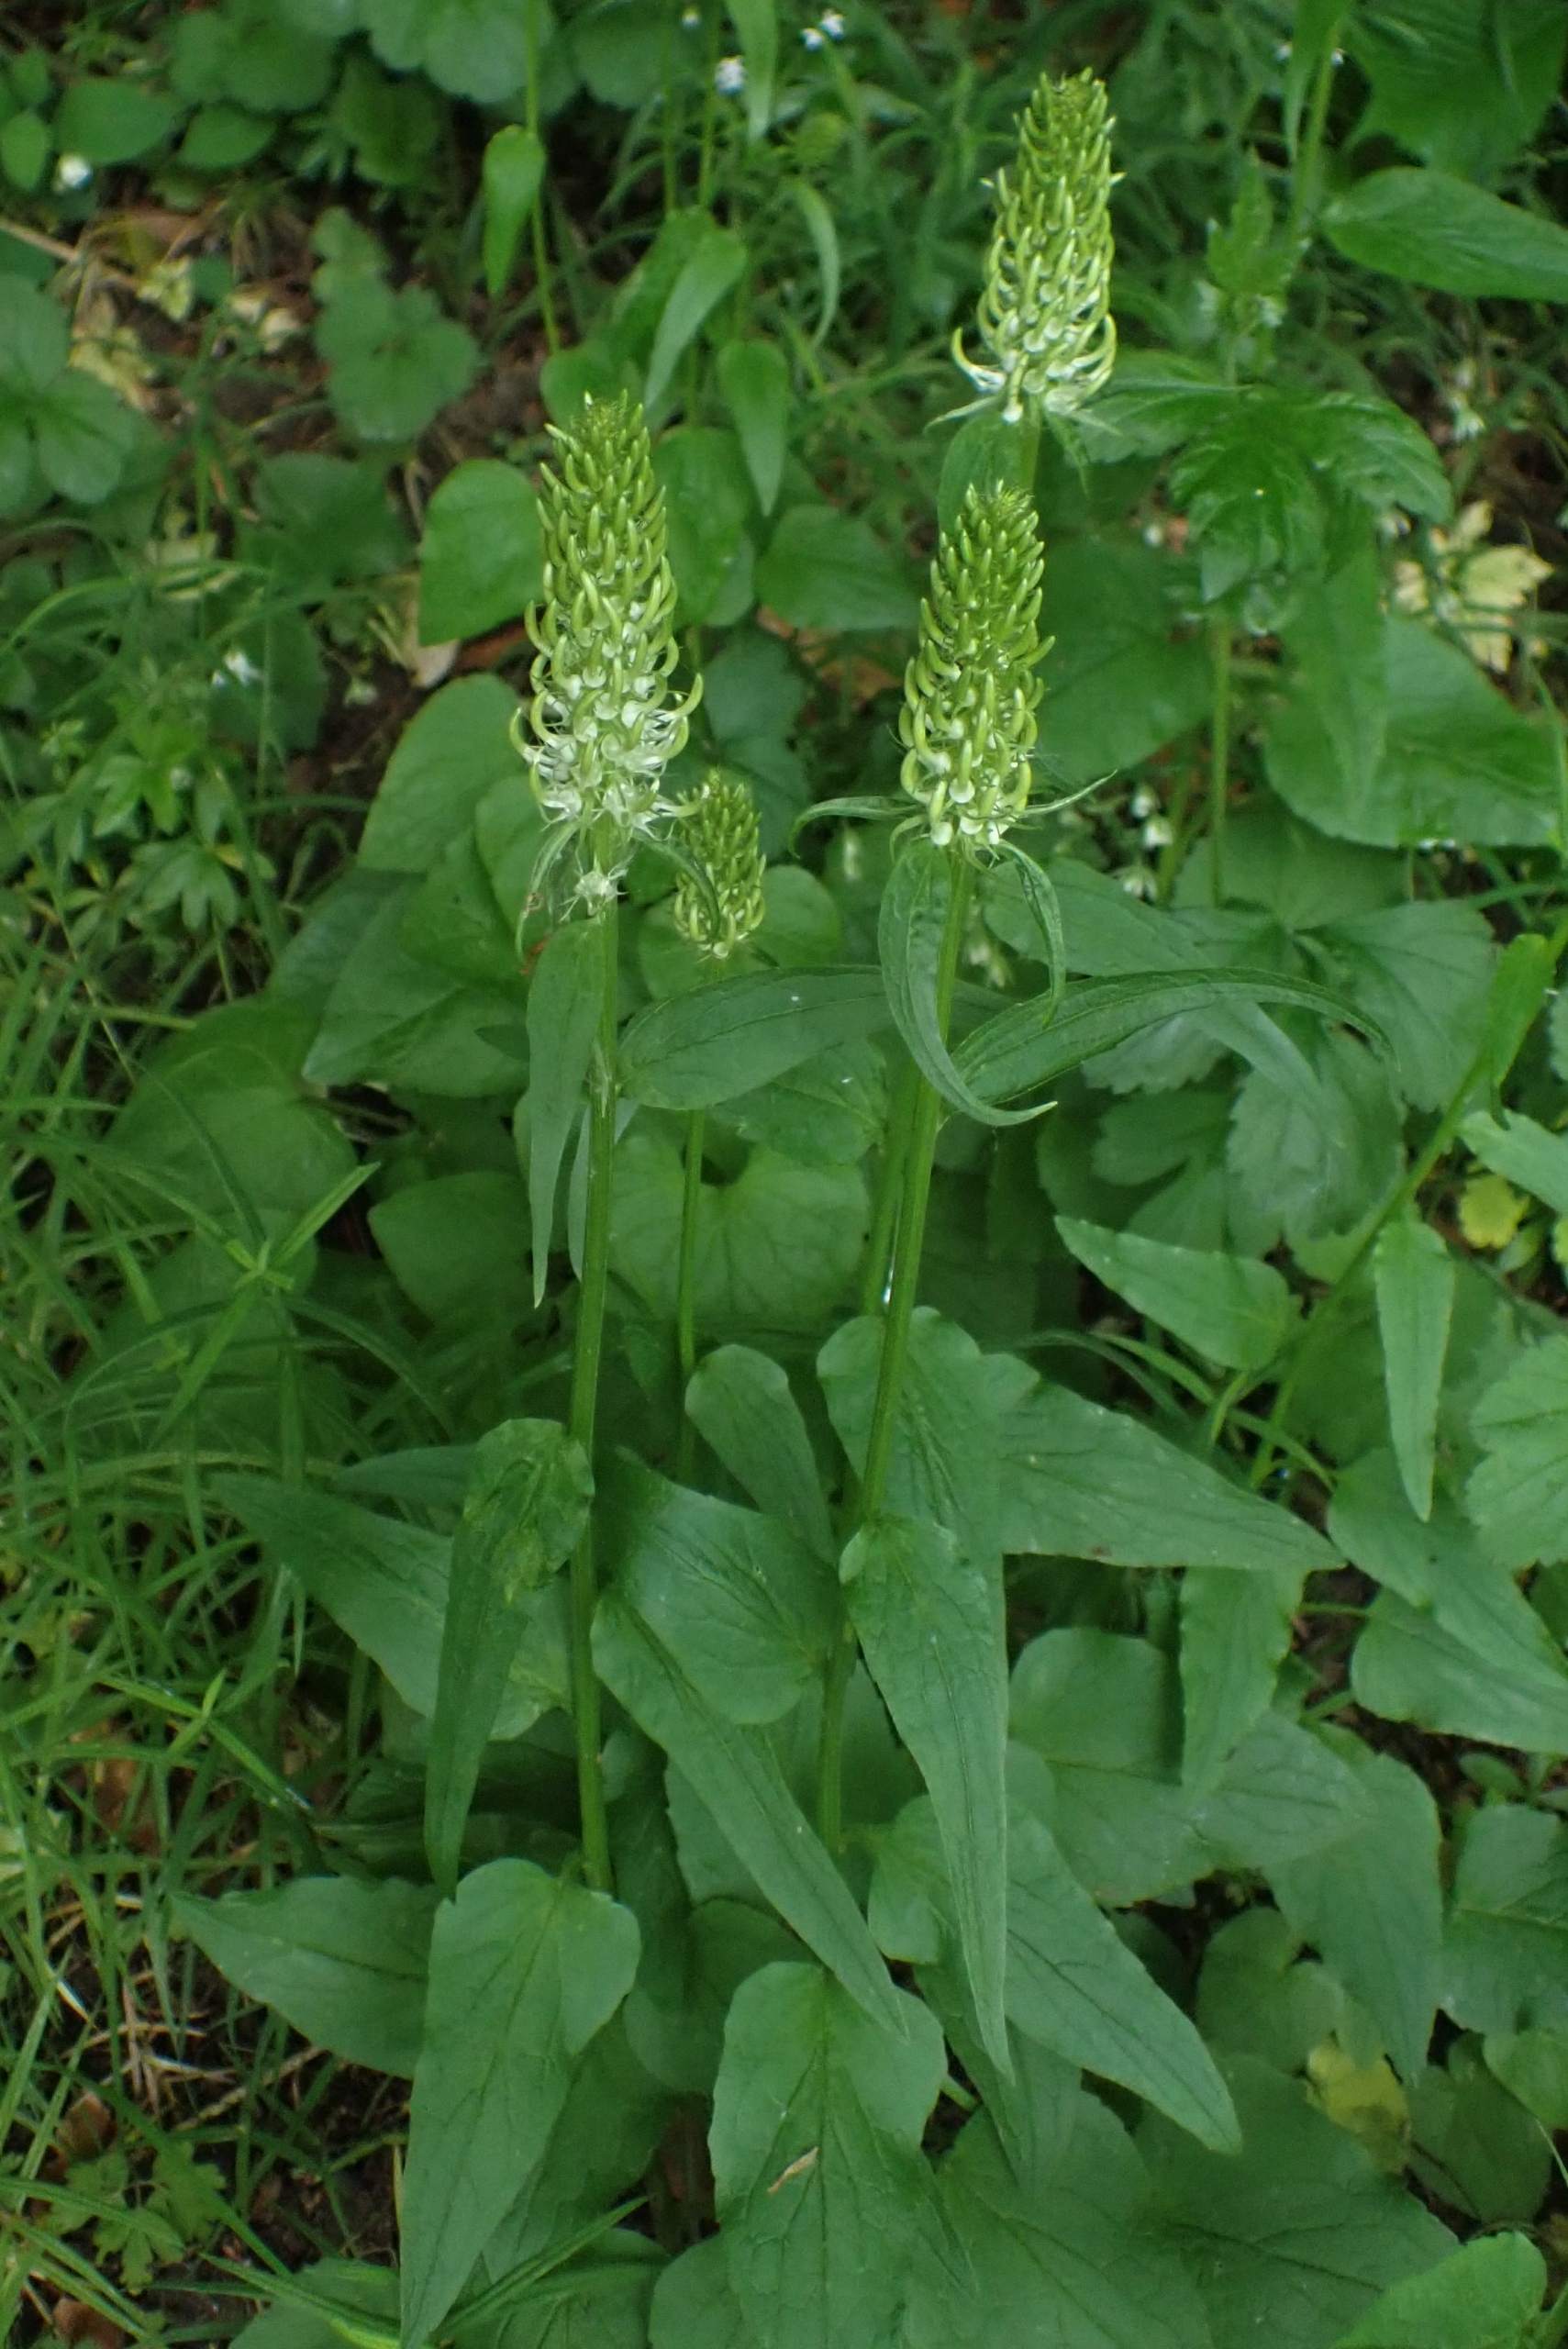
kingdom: Plantae
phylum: Tracheophyta
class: Magnoliopsida
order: Asterales
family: Campanulaceae
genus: Phyteuma
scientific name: Phyteuma spicatum
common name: Aks-rapunsel
